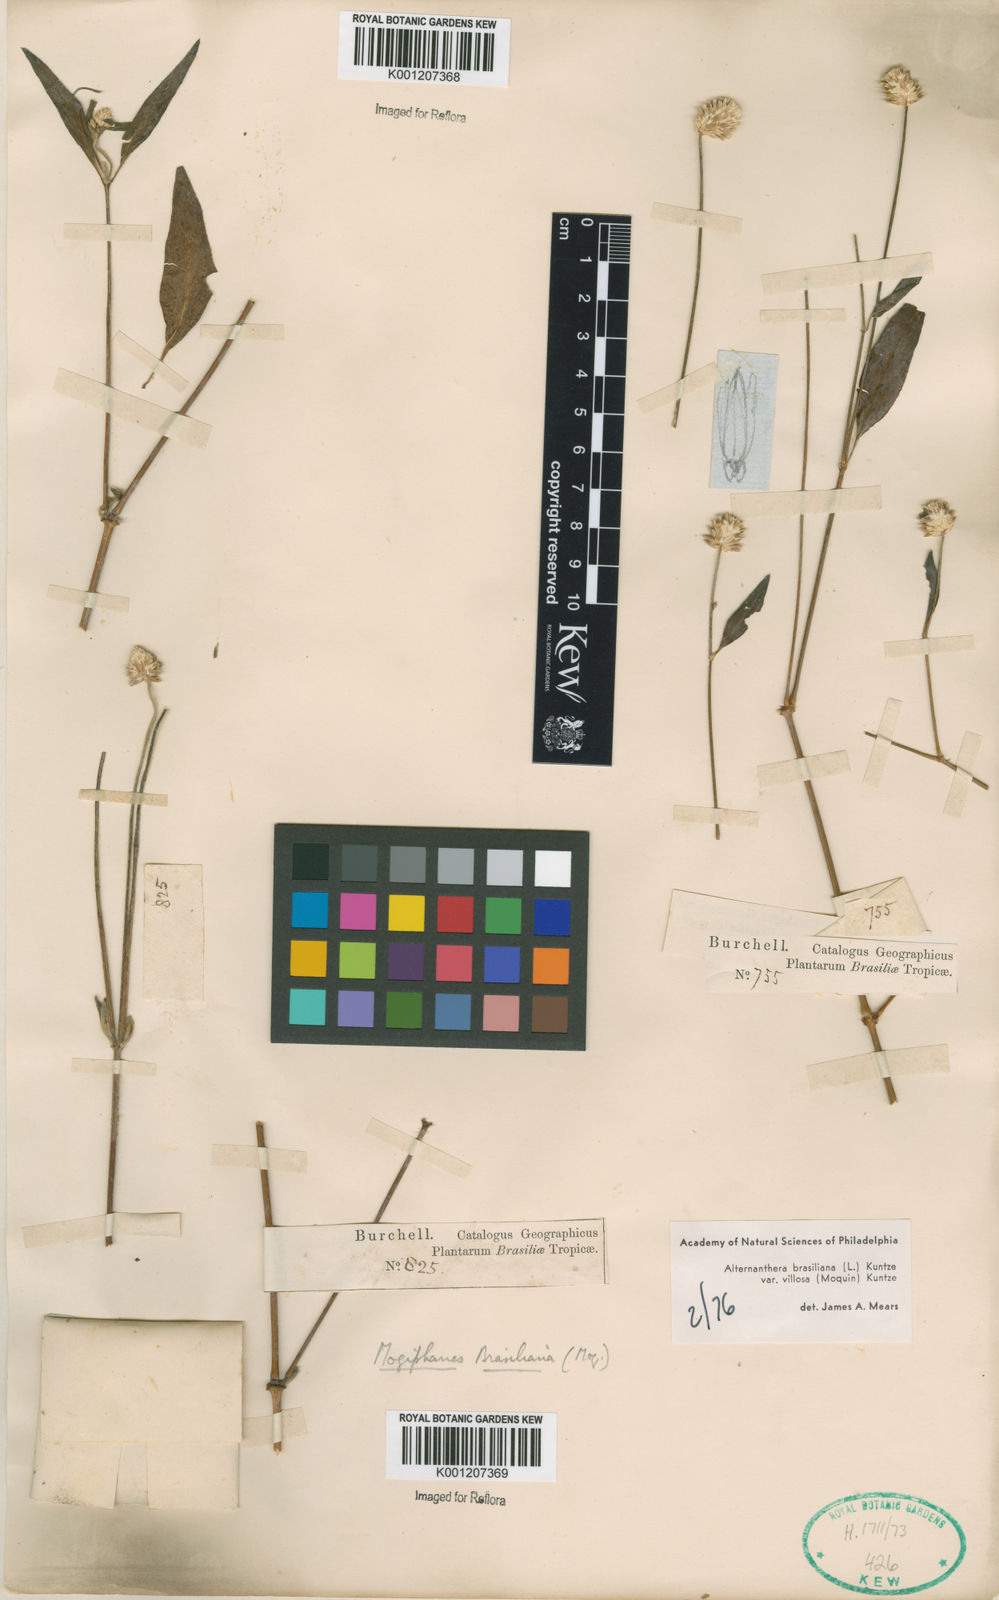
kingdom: Plantae
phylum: Tracheophyta
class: Magnoliopsida
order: Caryophyllales
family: Amaranthaceae
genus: Alternanthera
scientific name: Alternanthera brasiliana
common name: Brazilian joyweed
